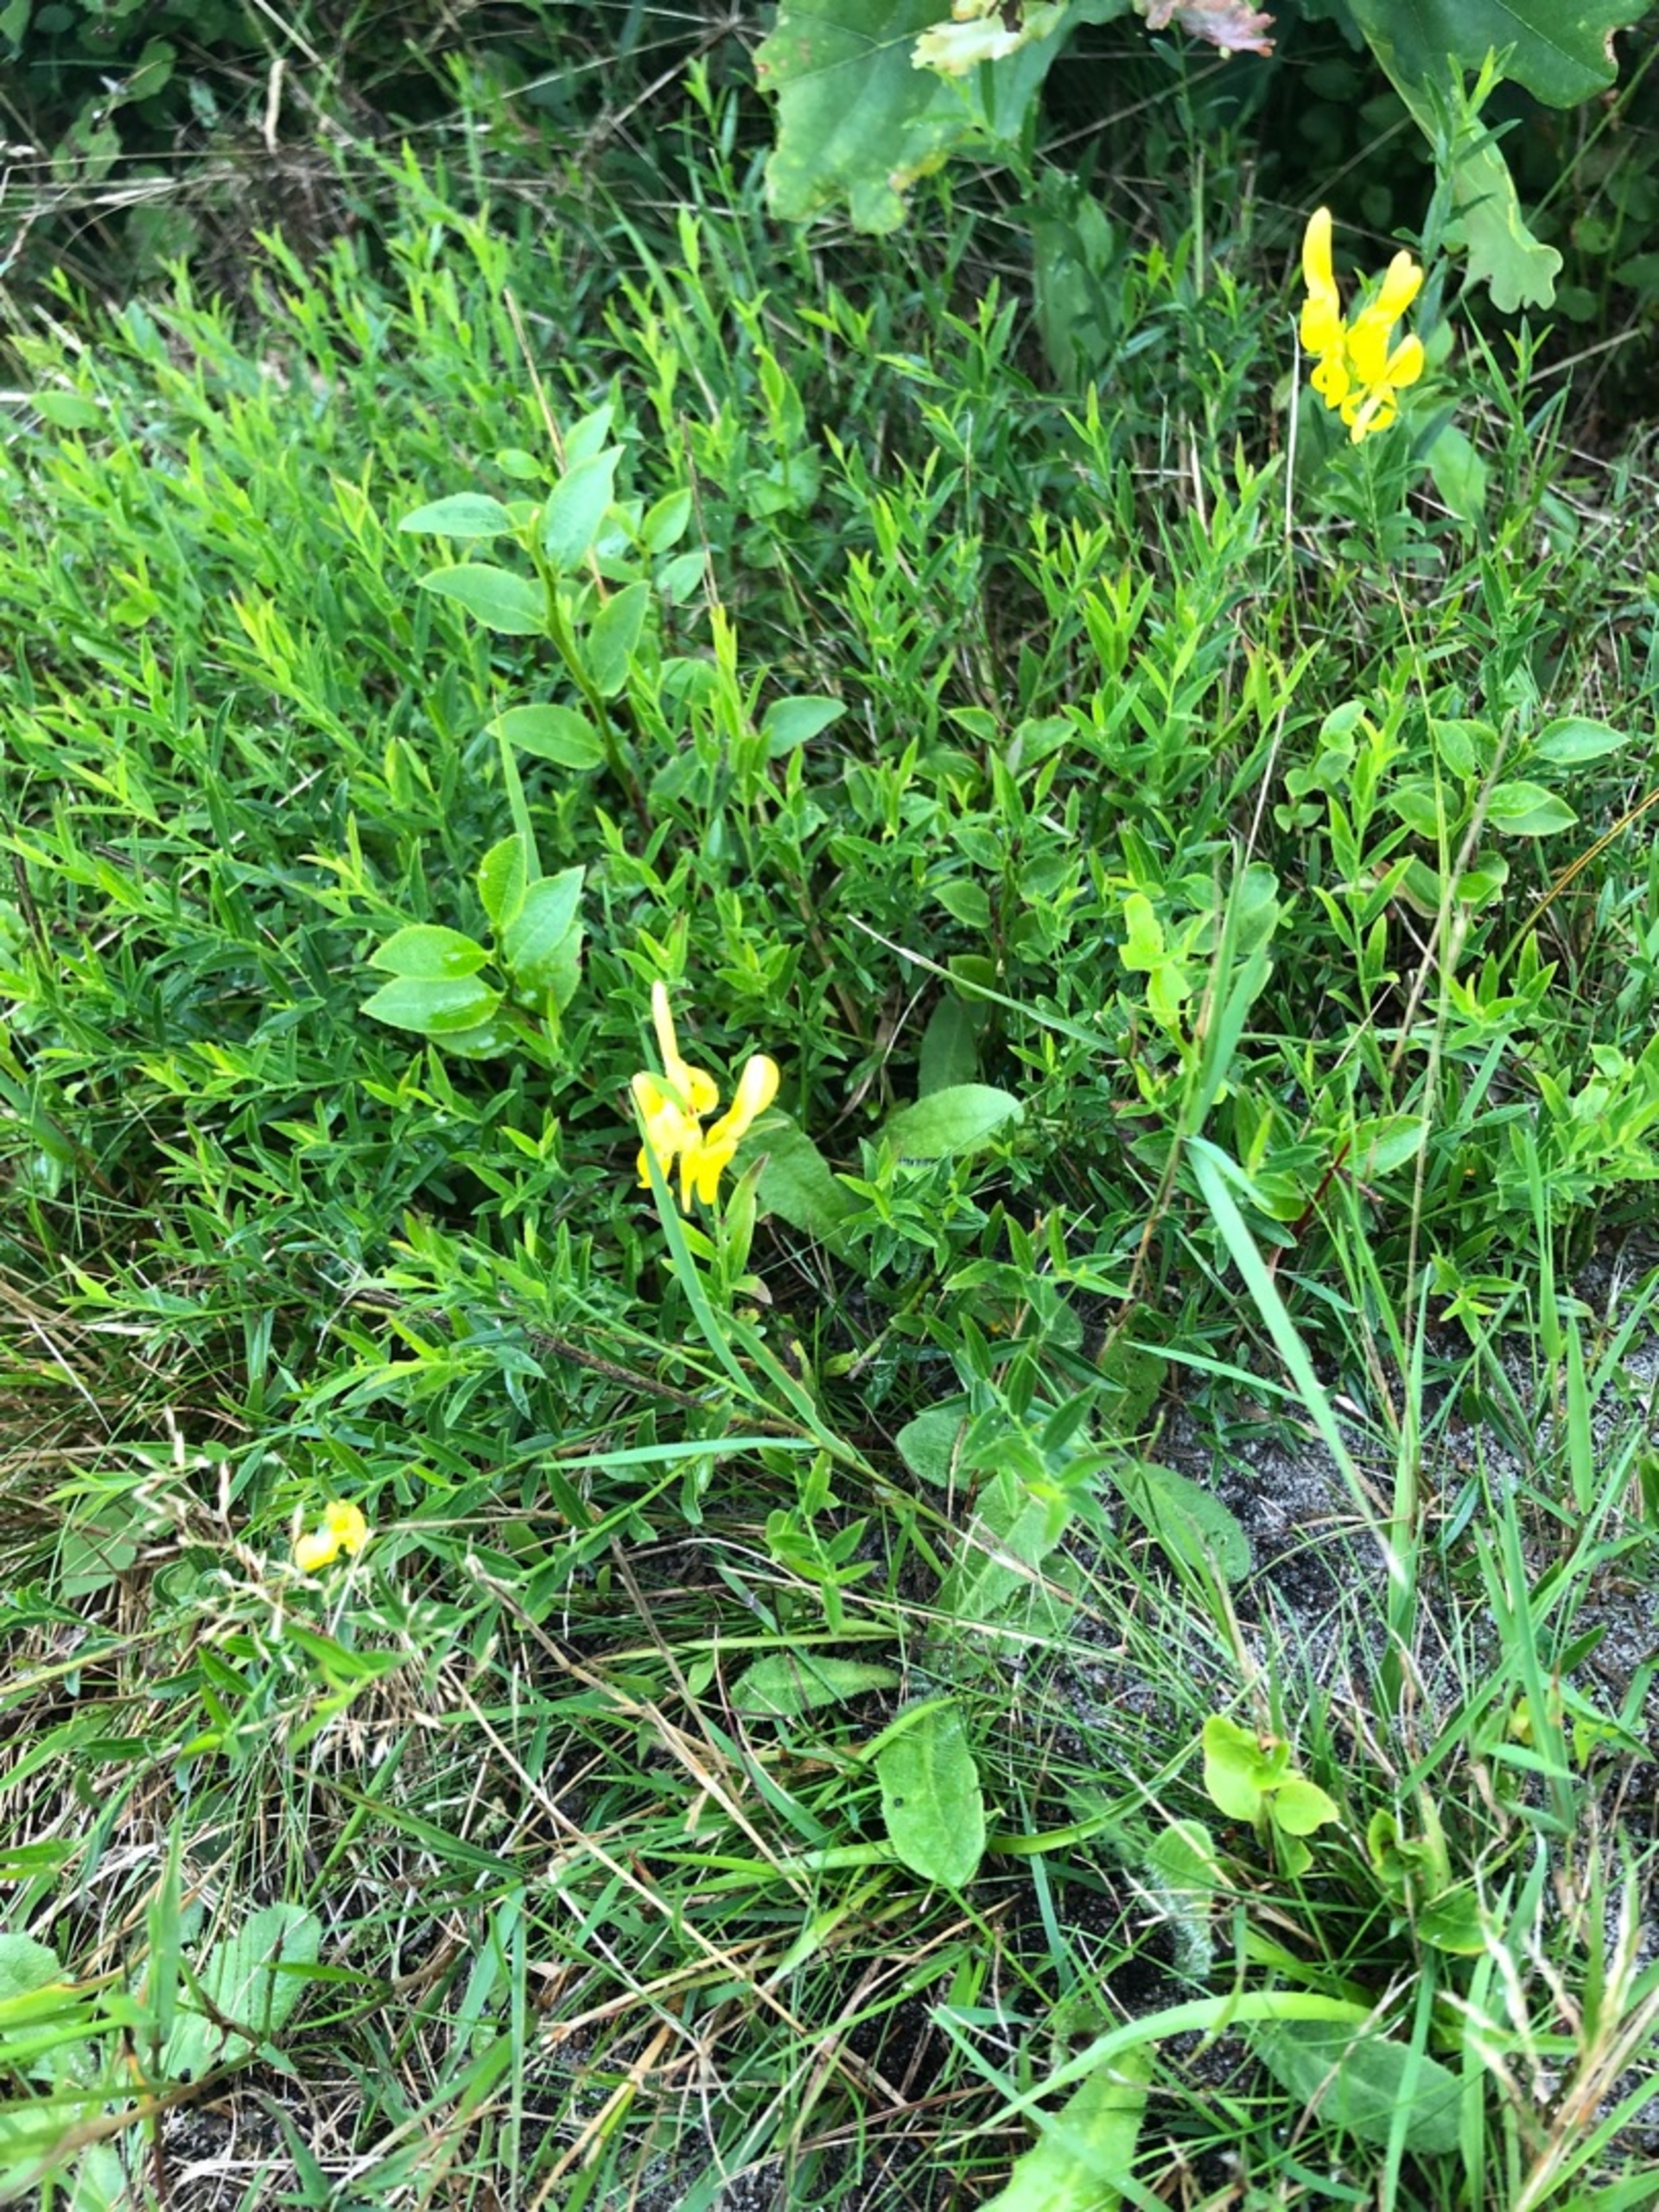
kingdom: Plantae
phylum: Tracheophyta
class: Magnoliopsida
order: Fabales
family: Fabaceae
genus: Genista
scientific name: Genista tinctoria
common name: Farve-visse
